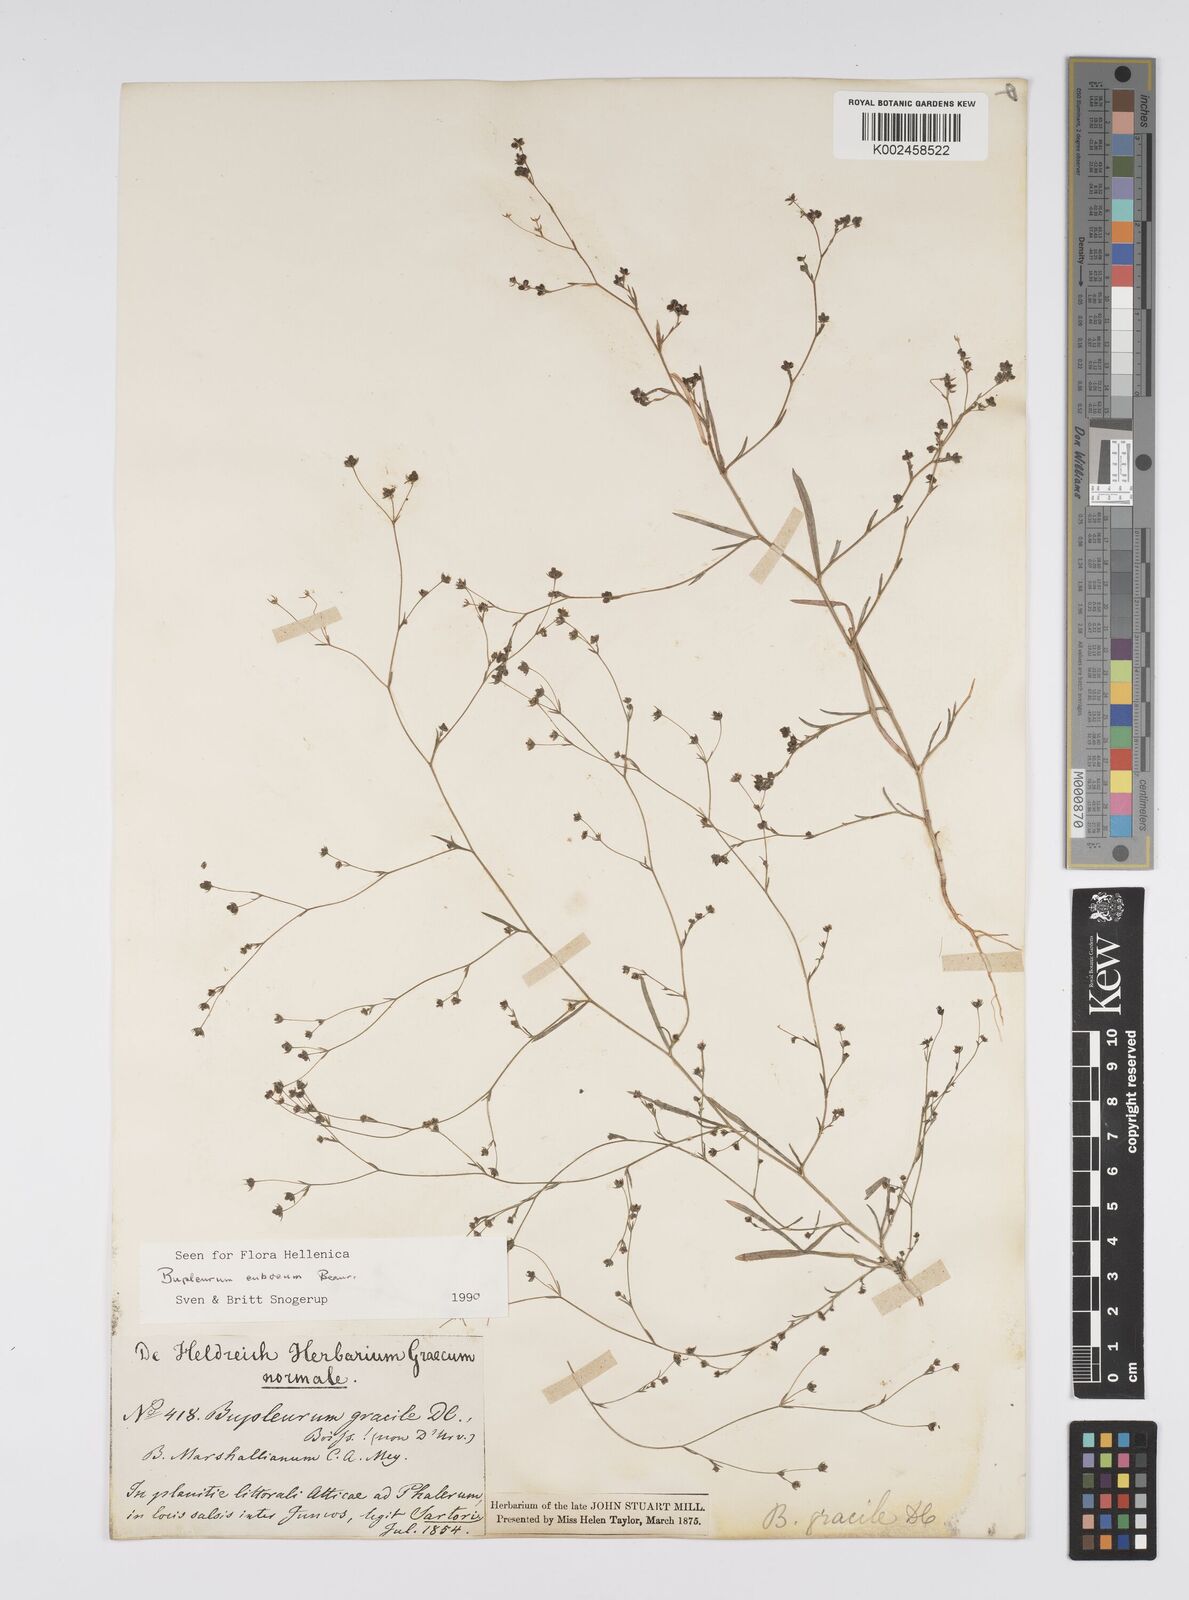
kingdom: Plantae
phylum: Tracheophyta
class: Magnoliopsida
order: Apiales
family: Apiaceae
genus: Bupleurum
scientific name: Bupleurum tenuissimum
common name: Slender hare's-ear
